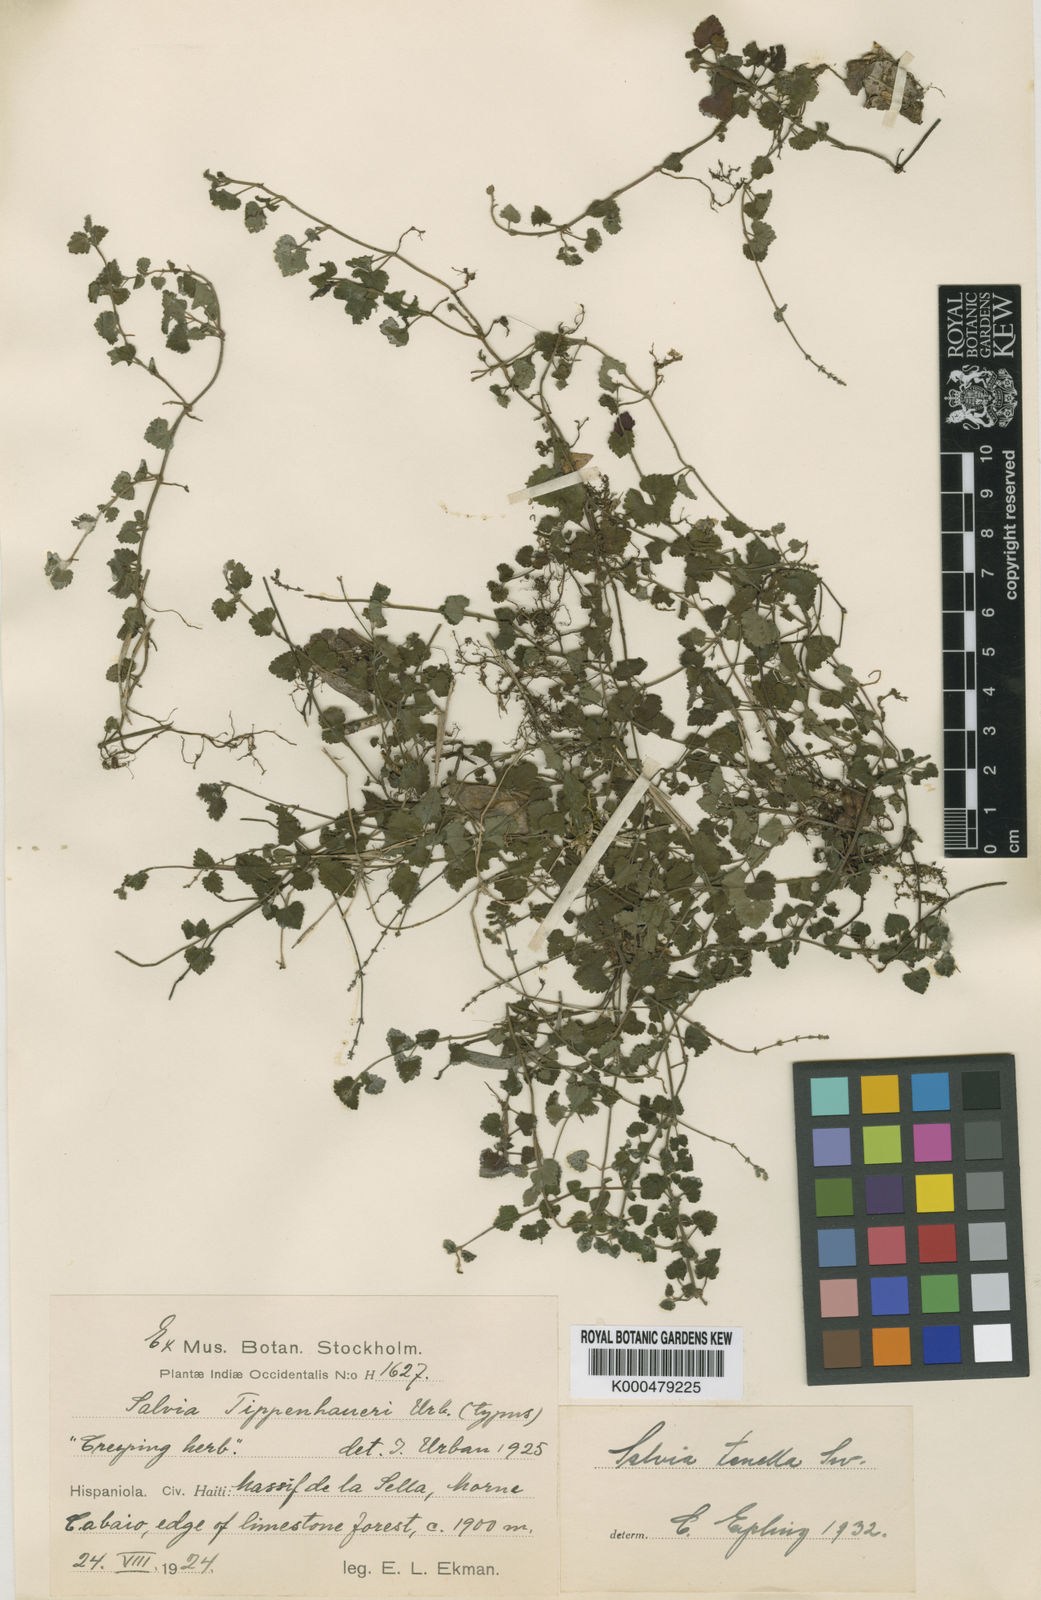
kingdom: Plantae
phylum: Tracheophyta
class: Magnoliopsida
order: Lamiales
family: Lamiaceae
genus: Salvia
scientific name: Salvia tenella
